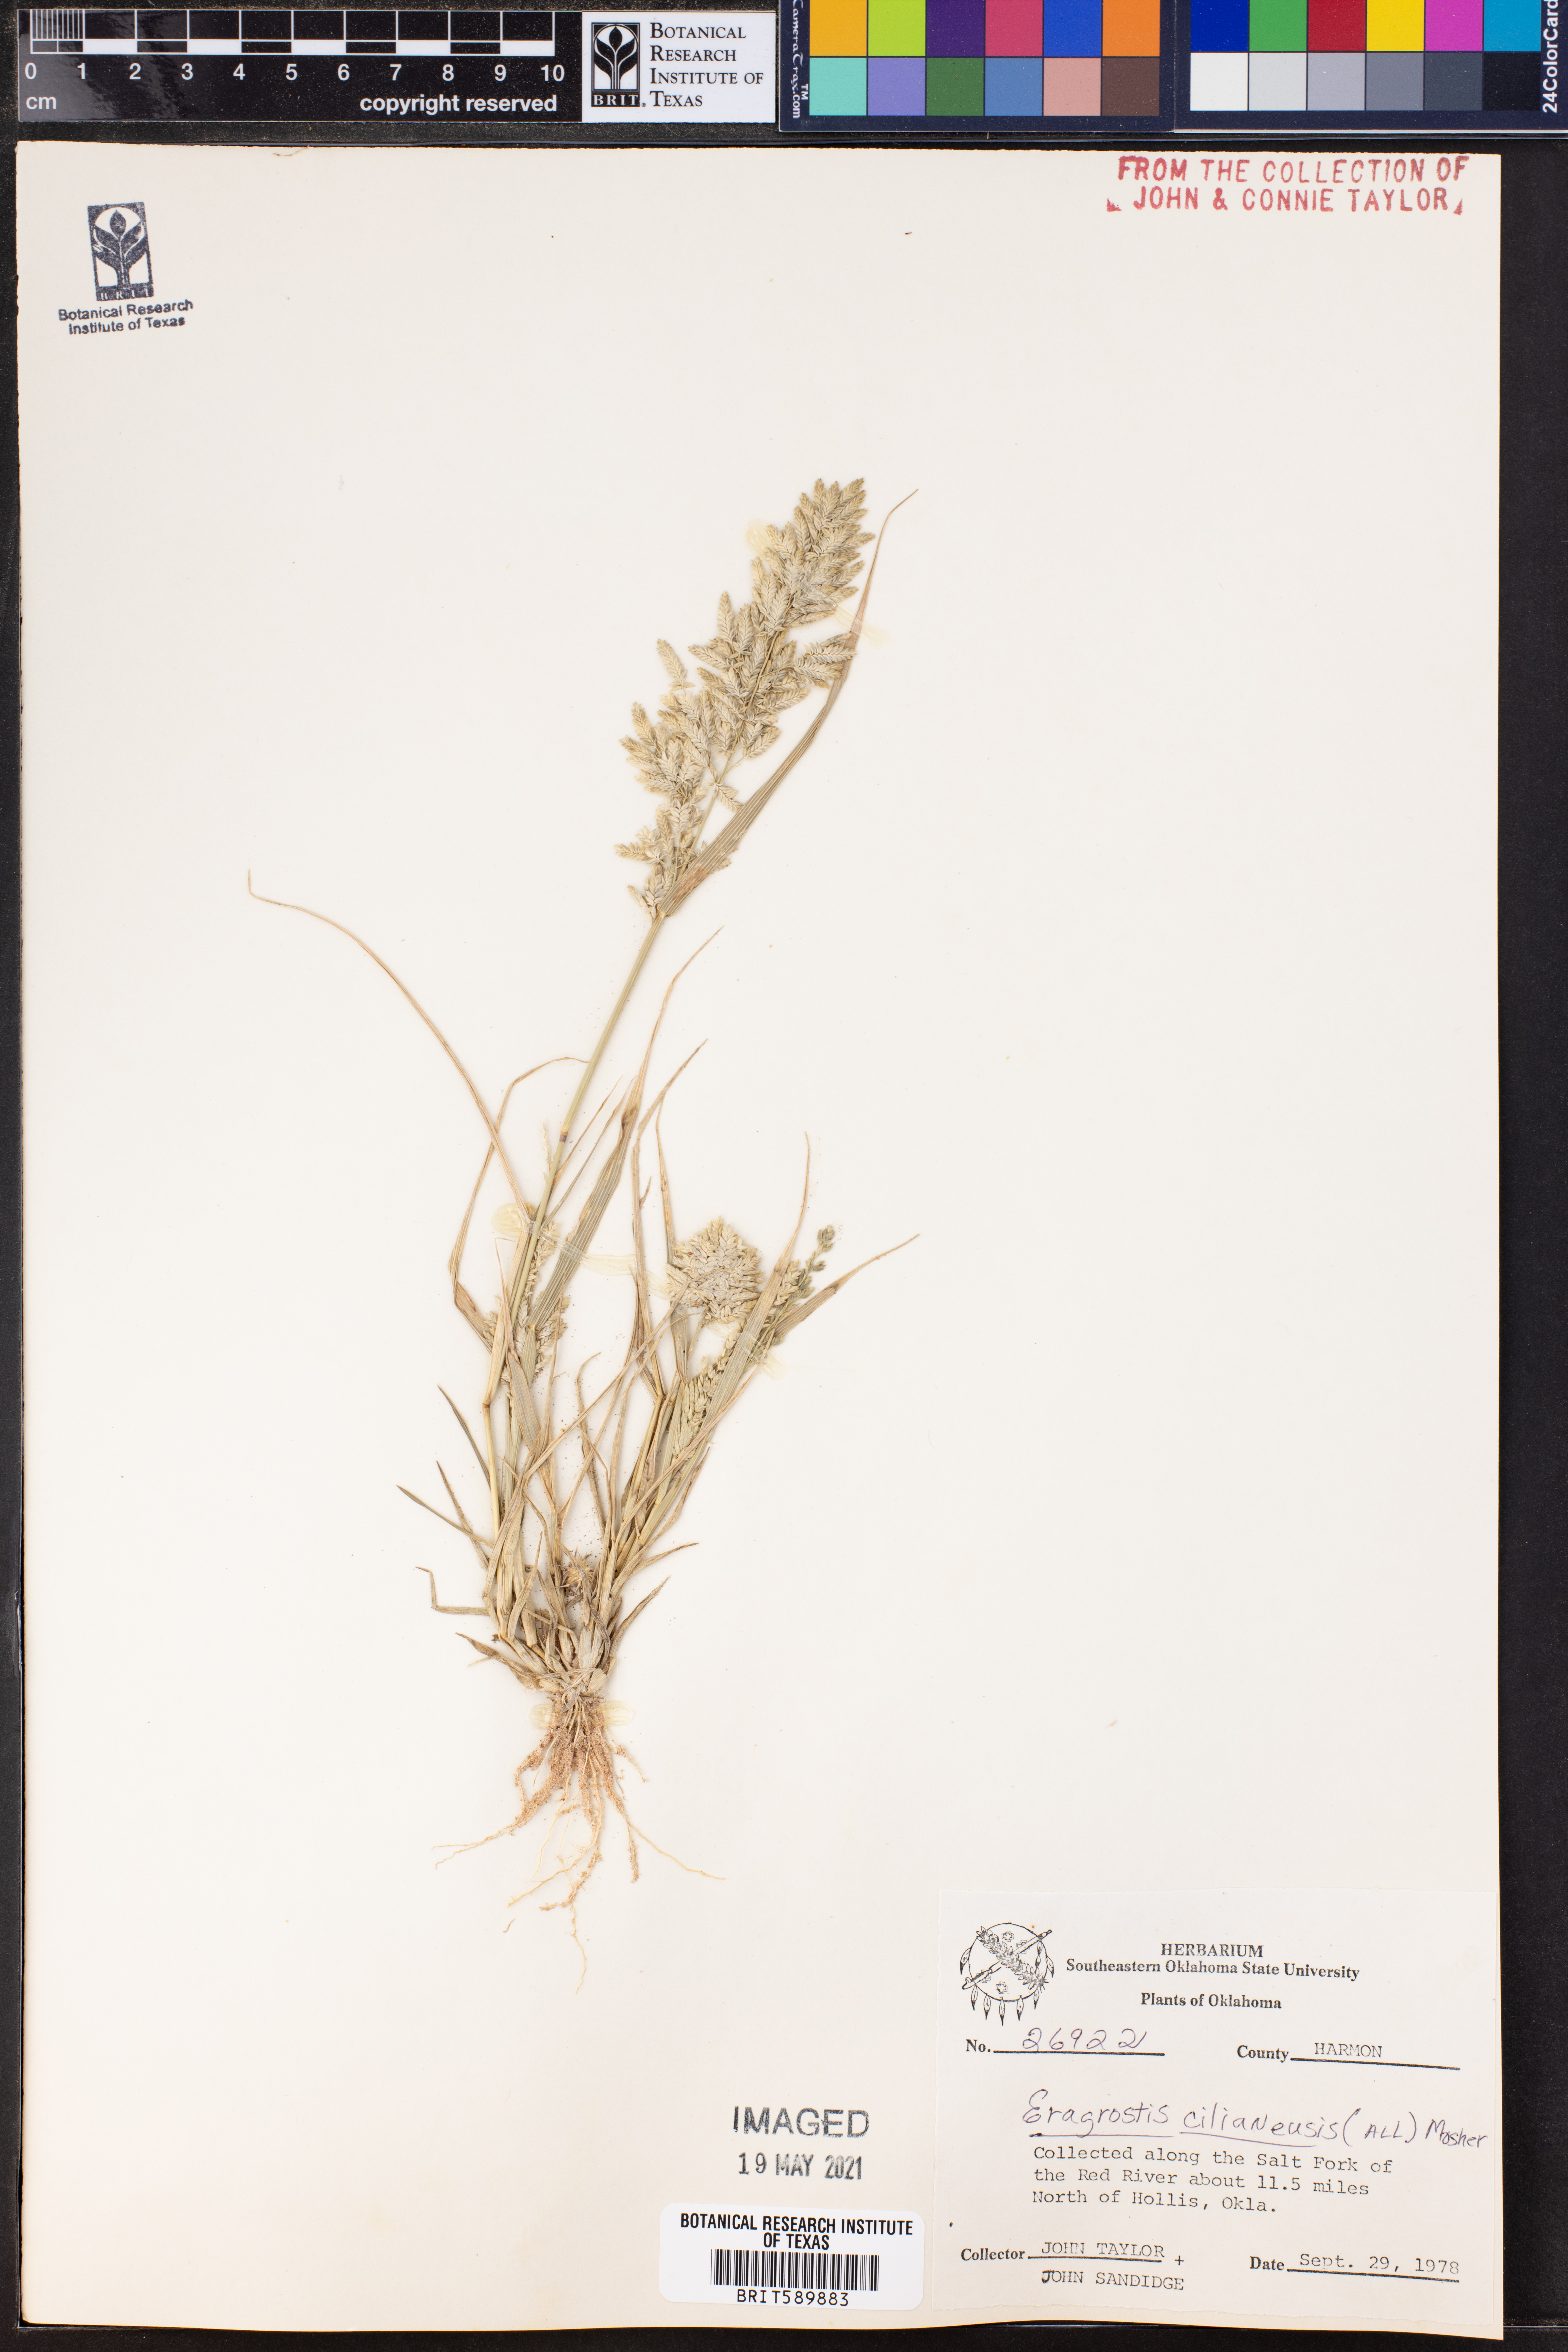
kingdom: Plantae
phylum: Tracheophyta
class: Liliopsida
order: Poales
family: Poaceae
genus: Eragrostis
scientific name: Eragrostis cilianensis
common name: Stinkgrass
